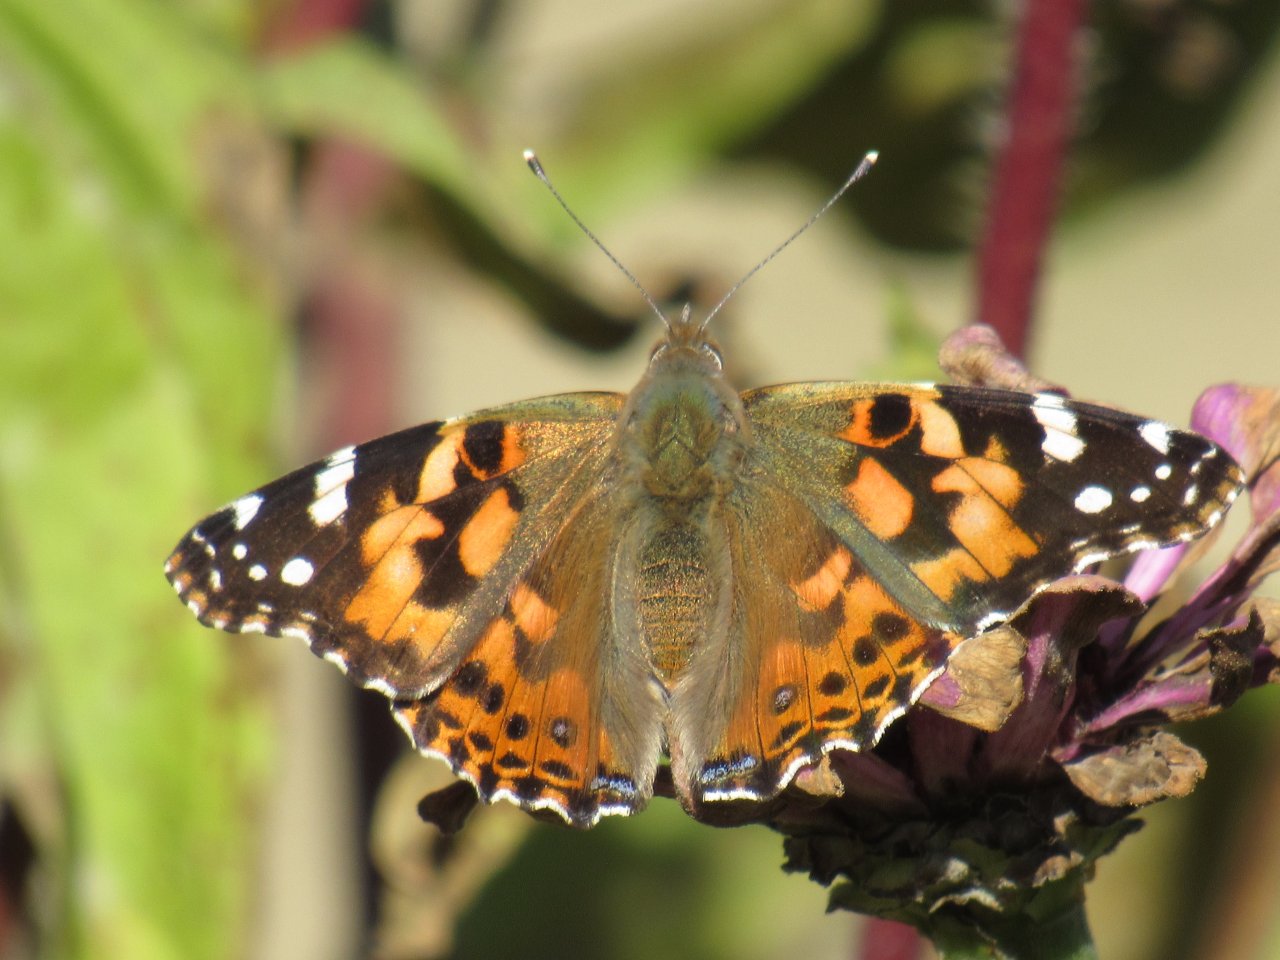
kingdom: Animalia
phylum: Arthropoda
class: Insecta
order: Lepidoptera
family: Nymphalidae
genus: Vanessa
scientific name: Vanessa cardui
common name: Painted Lady
